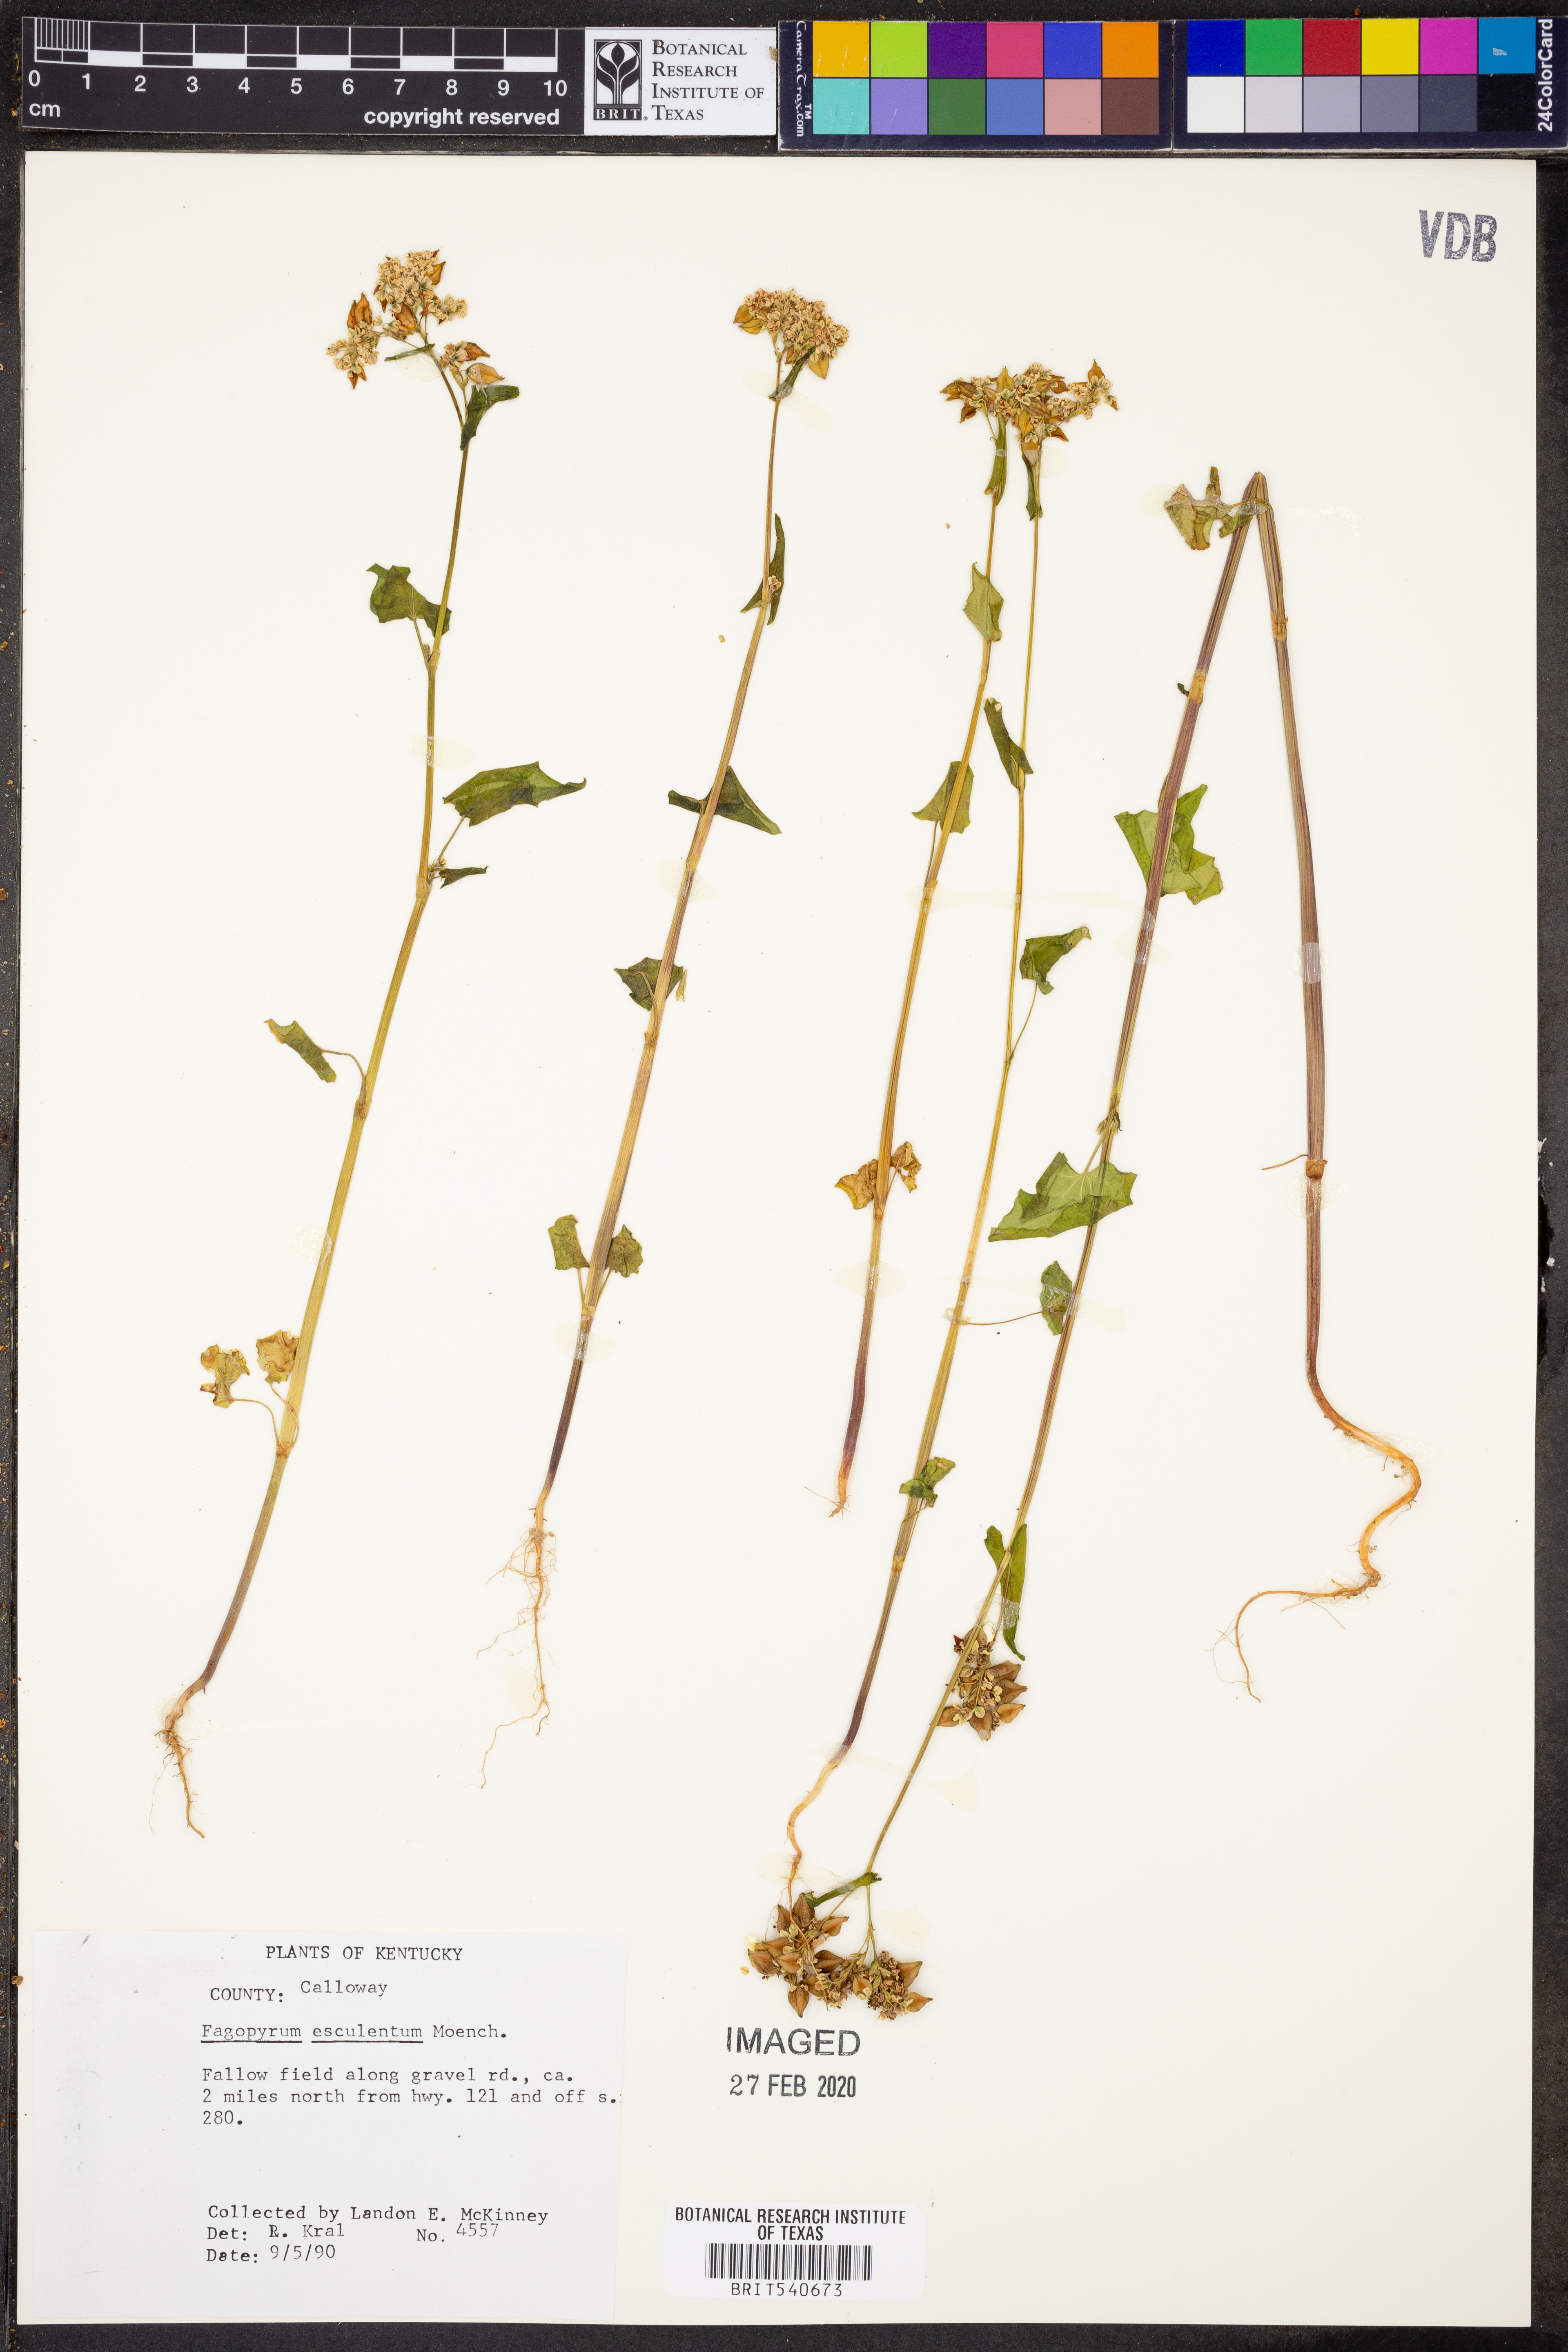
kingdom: Plantae
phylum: Tracheophyta
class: Magnoliopsida
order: Caryophyllales
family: Polygonaceae
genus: Fagopyrum
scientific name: Fagopyrum esculentum
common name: Buckwheat
